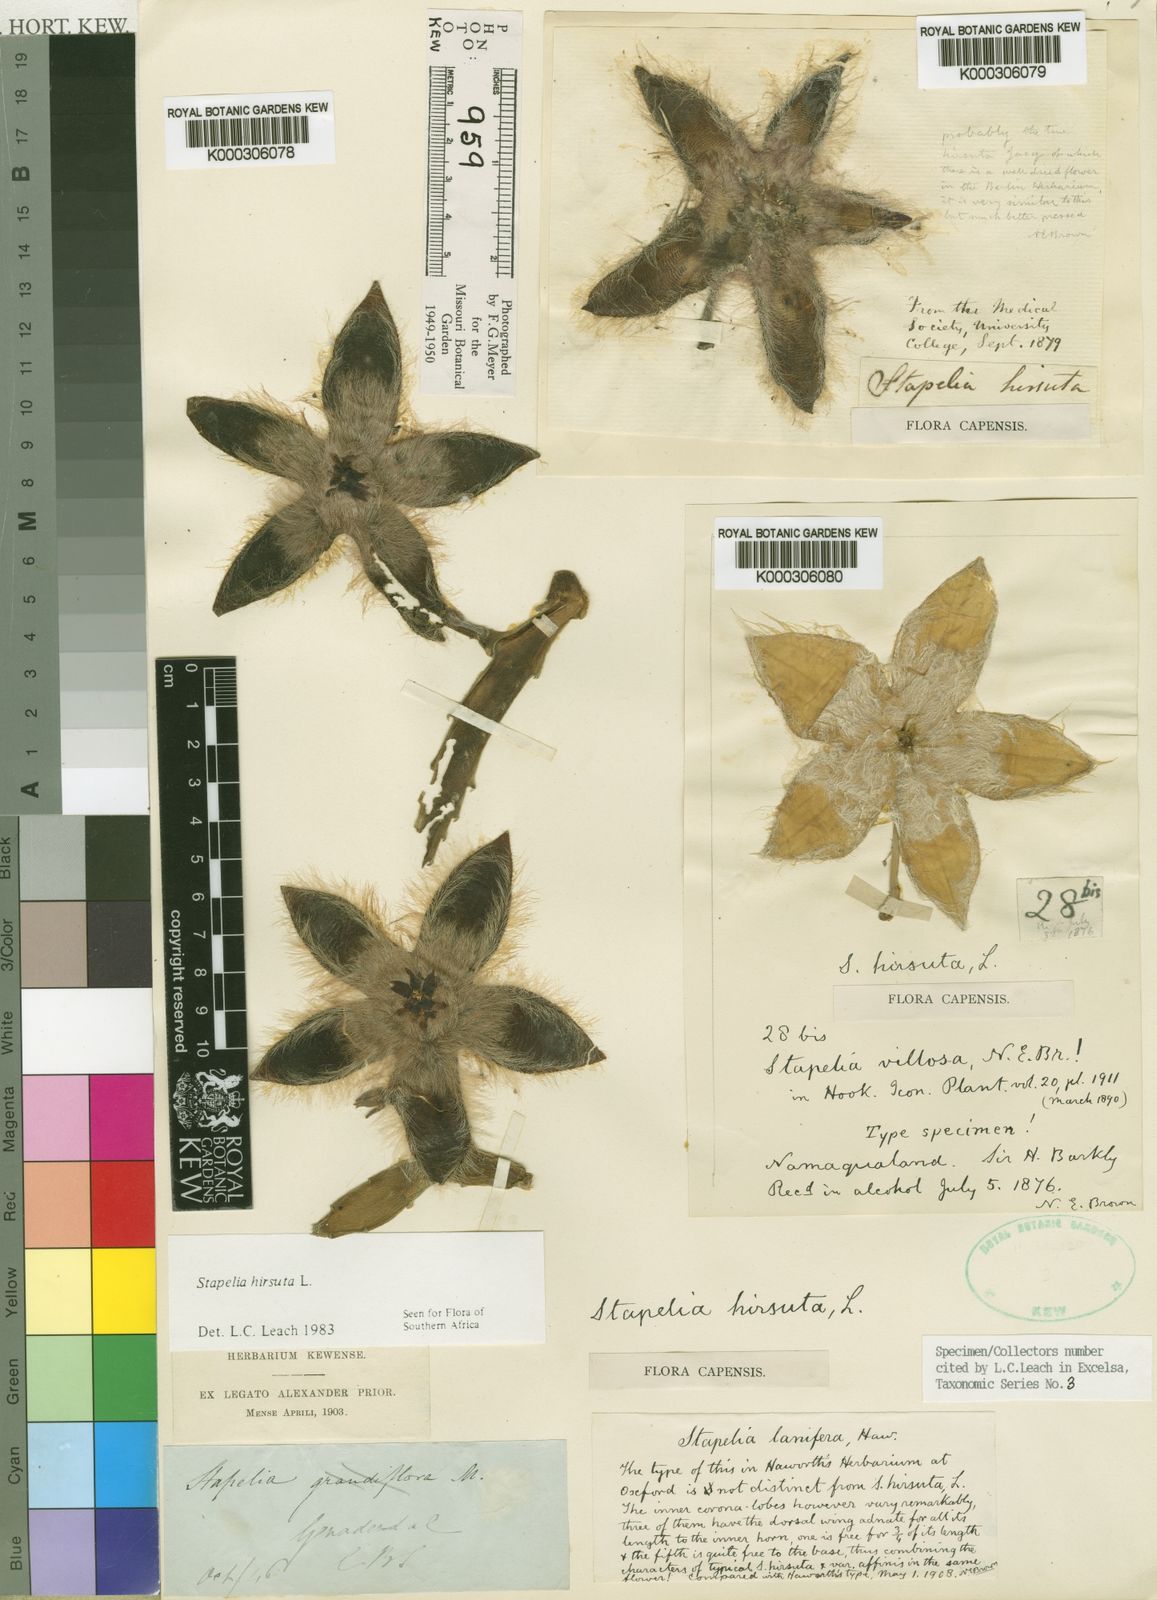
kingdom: Plantae
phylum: Tracheophyta
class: Magnoliopsida
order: Gentianales
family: Apocynaceae
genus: Ceropegia
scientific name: Ceropegia pulvinata
